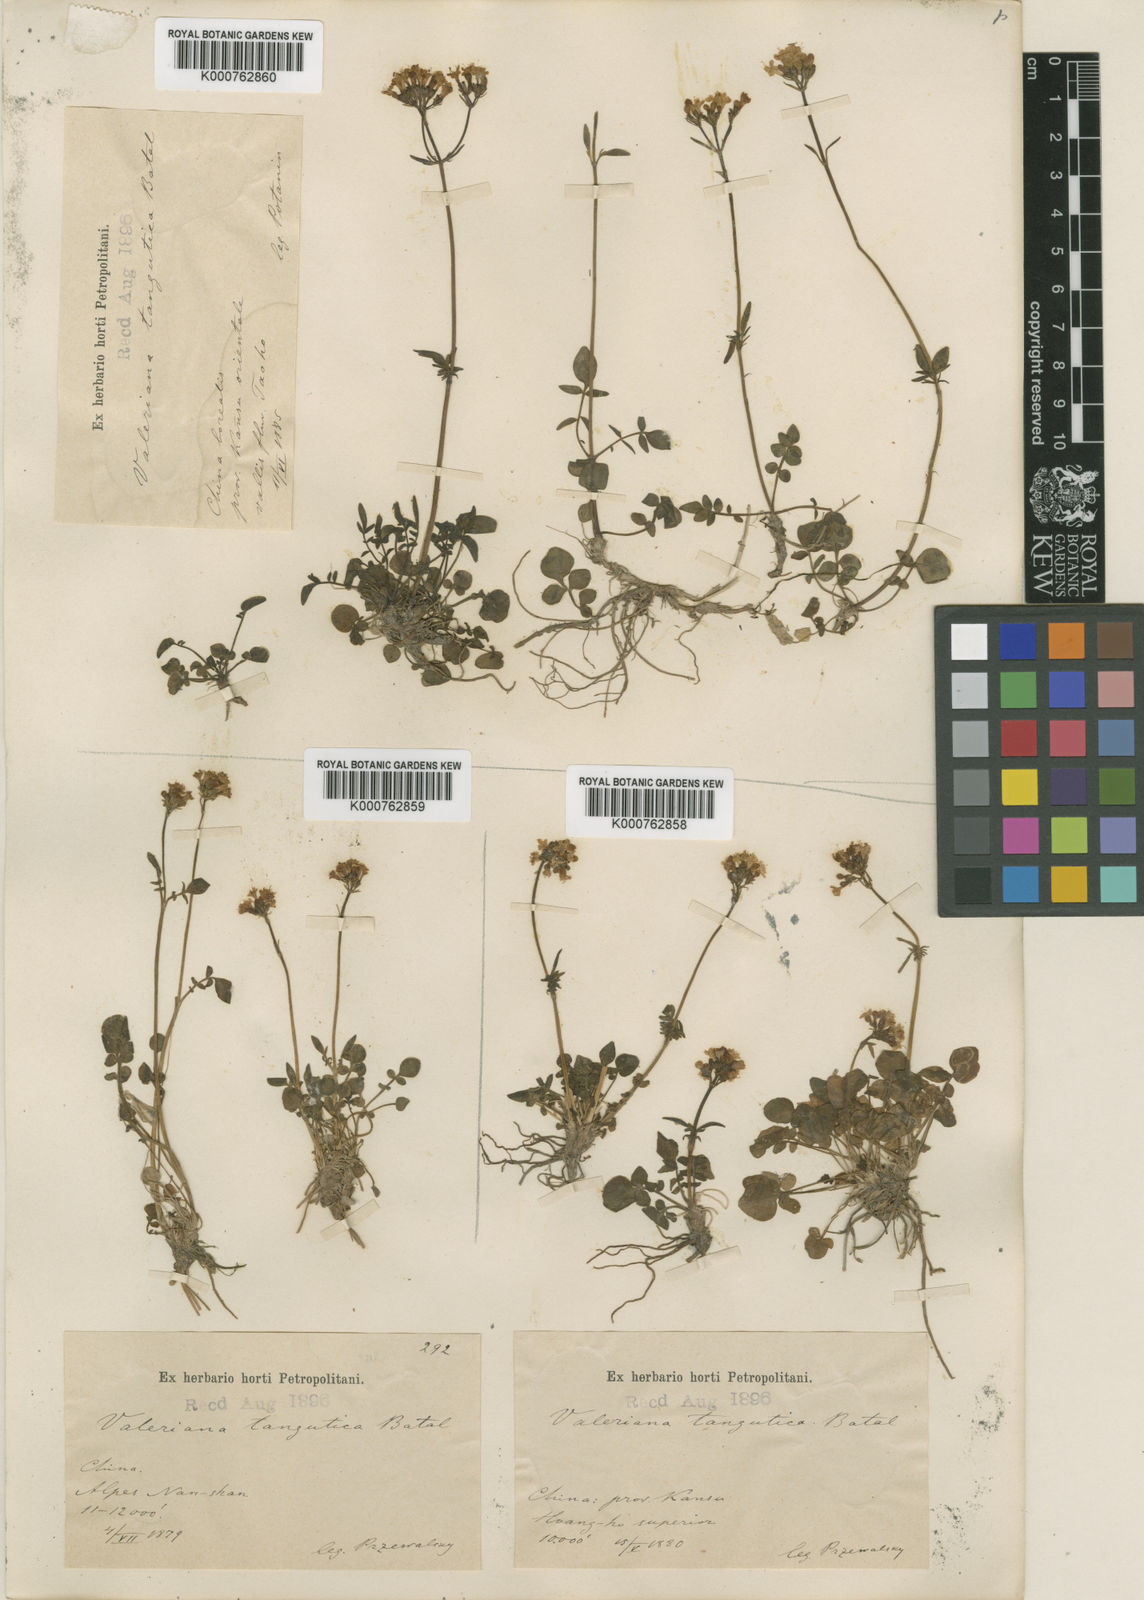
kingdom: Plantae
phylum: Tracheophyta
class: Magnoliopsida
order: Dipsacales
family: Caprifoliaceae
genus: Valeriana
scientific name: Valeriana tangutica
